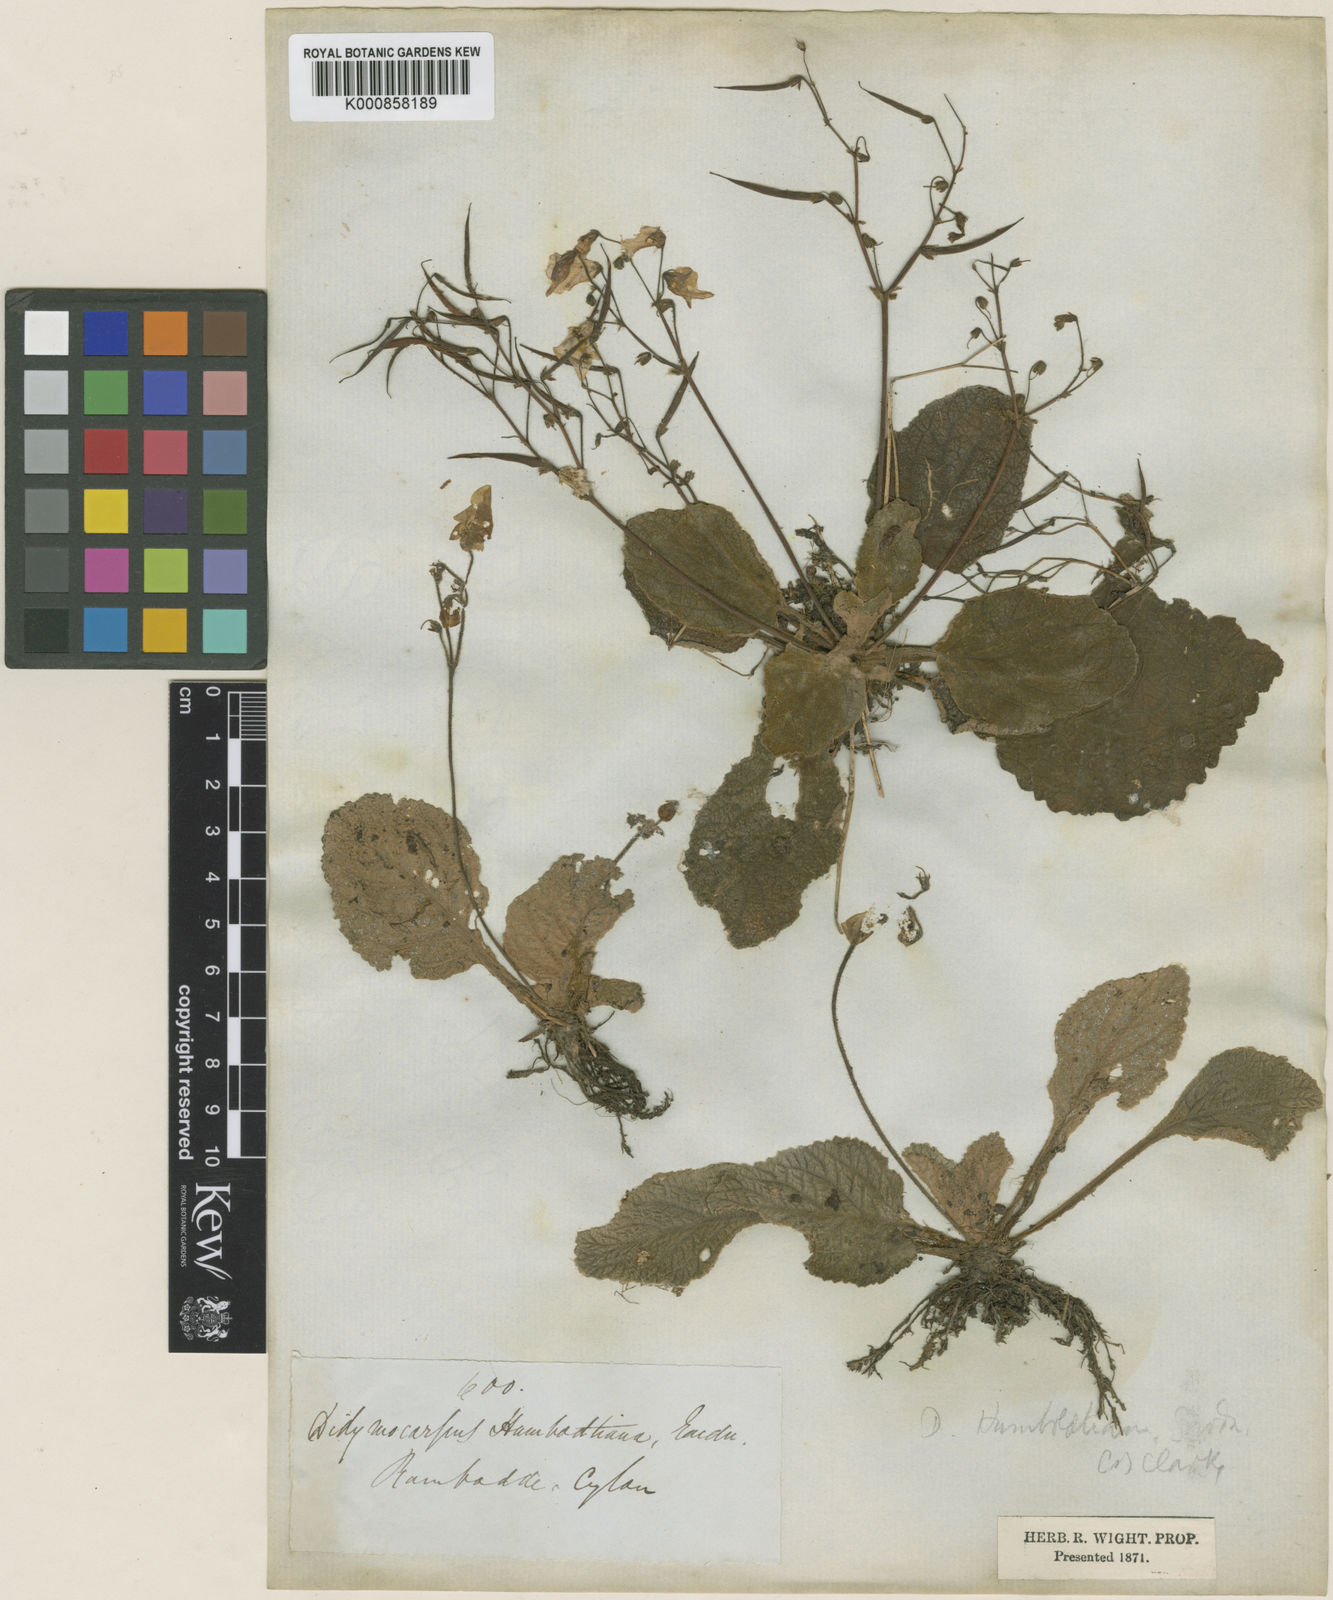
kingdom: Plantae
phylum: Tracheophyta
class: Magnoliopsida
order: Lamiales
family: Gesneriaceae
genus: Henckelia
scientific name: Henckelia humboldtiana
